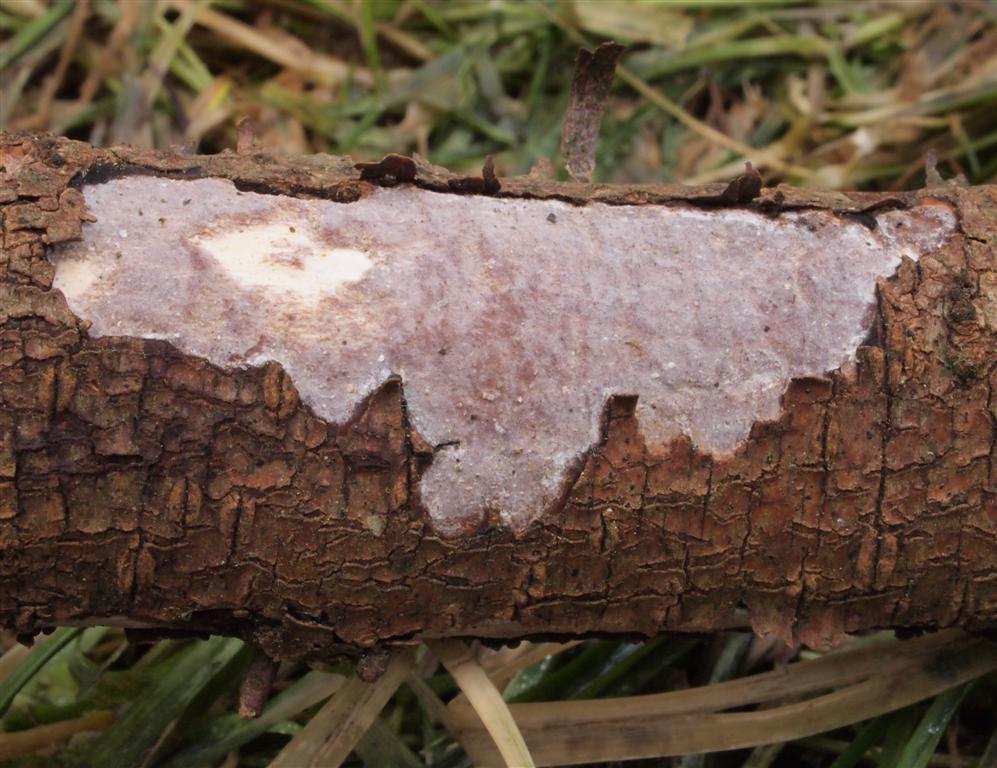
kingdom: Fungi
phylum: Basidiomycota
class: Agaricomycetes
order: Corticiales
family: Vuilleminiaceae
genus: Vuilleminia
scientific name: Vuilleminia cystidiata
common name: tjørne-barksprænger
